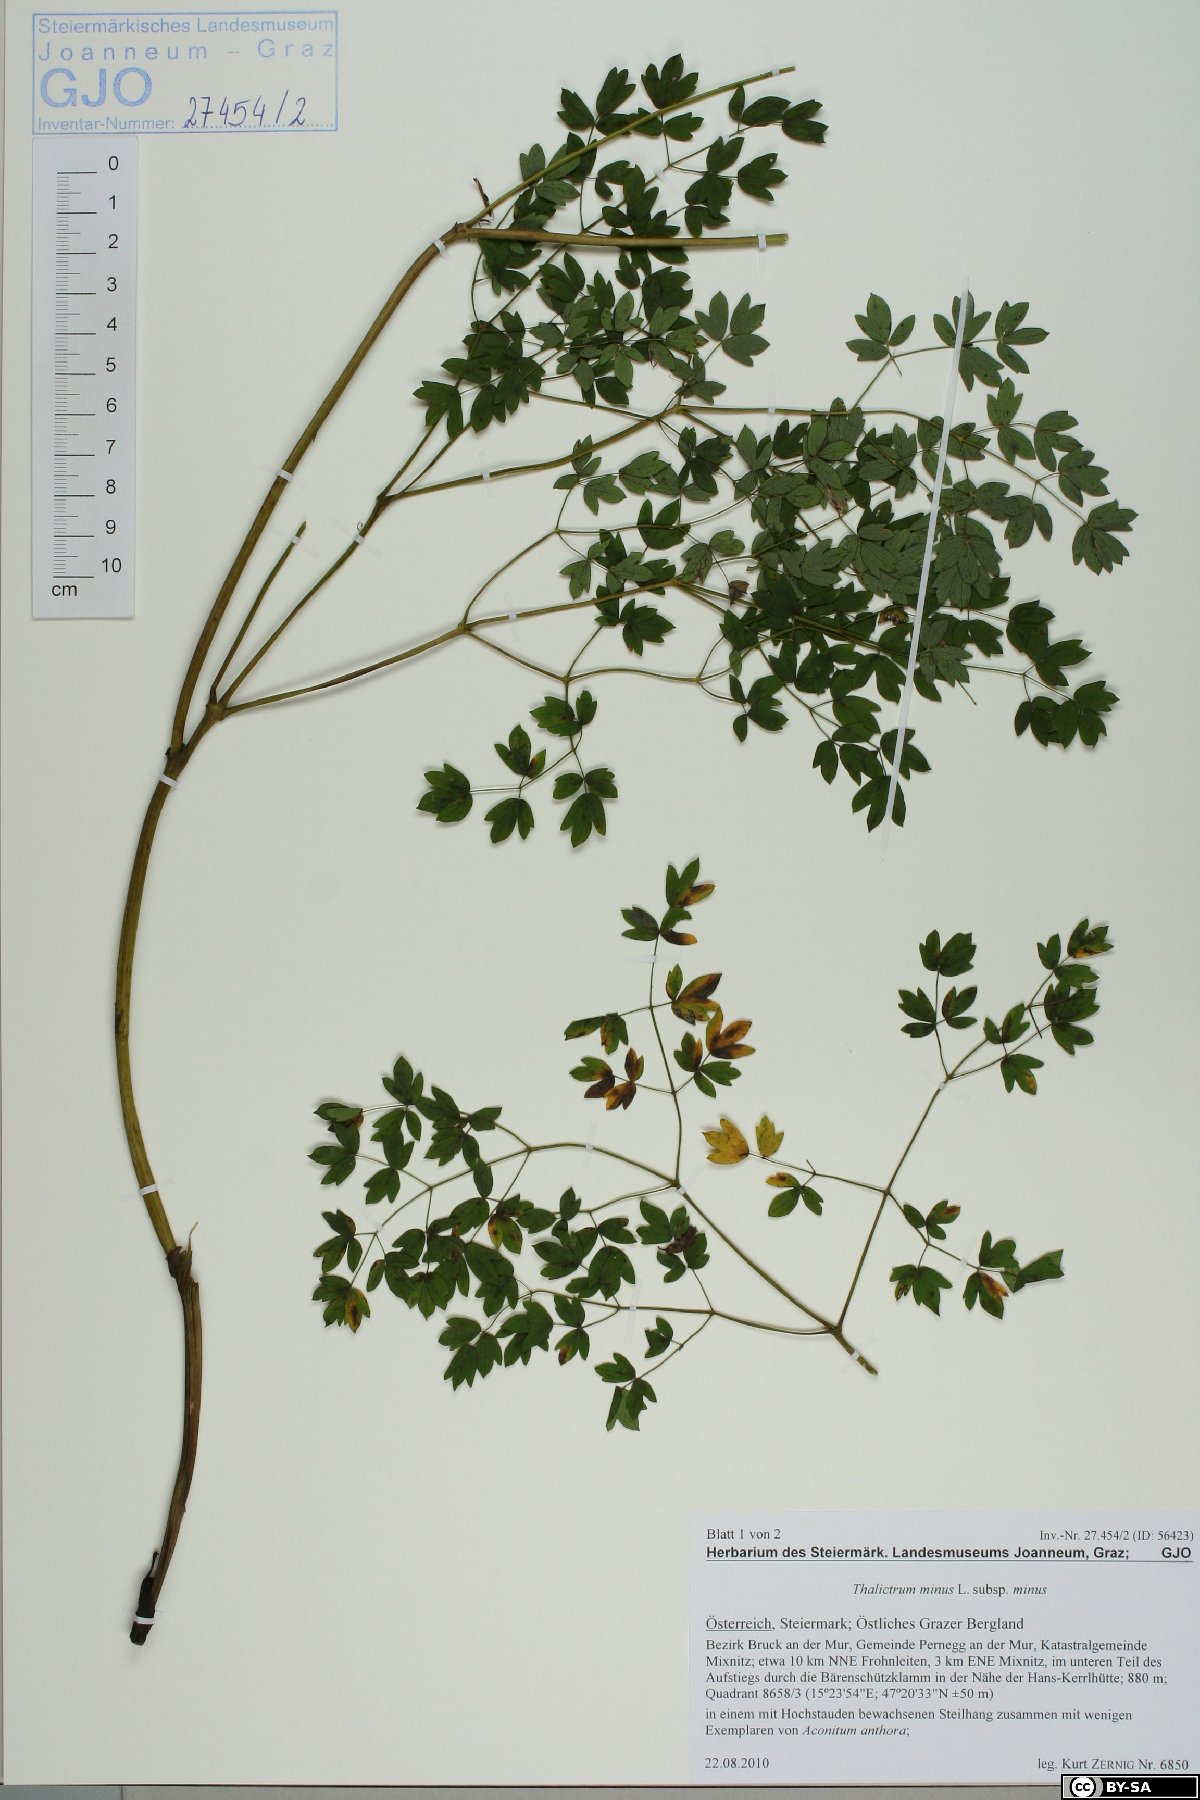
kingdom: Plantae
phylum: Tracheophyta
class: Magnoliopsida
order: Ranunculales
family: Ranunculaceae
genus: Thalictrum
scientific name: Thalictrum minus
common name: Lesser meadow-rue
